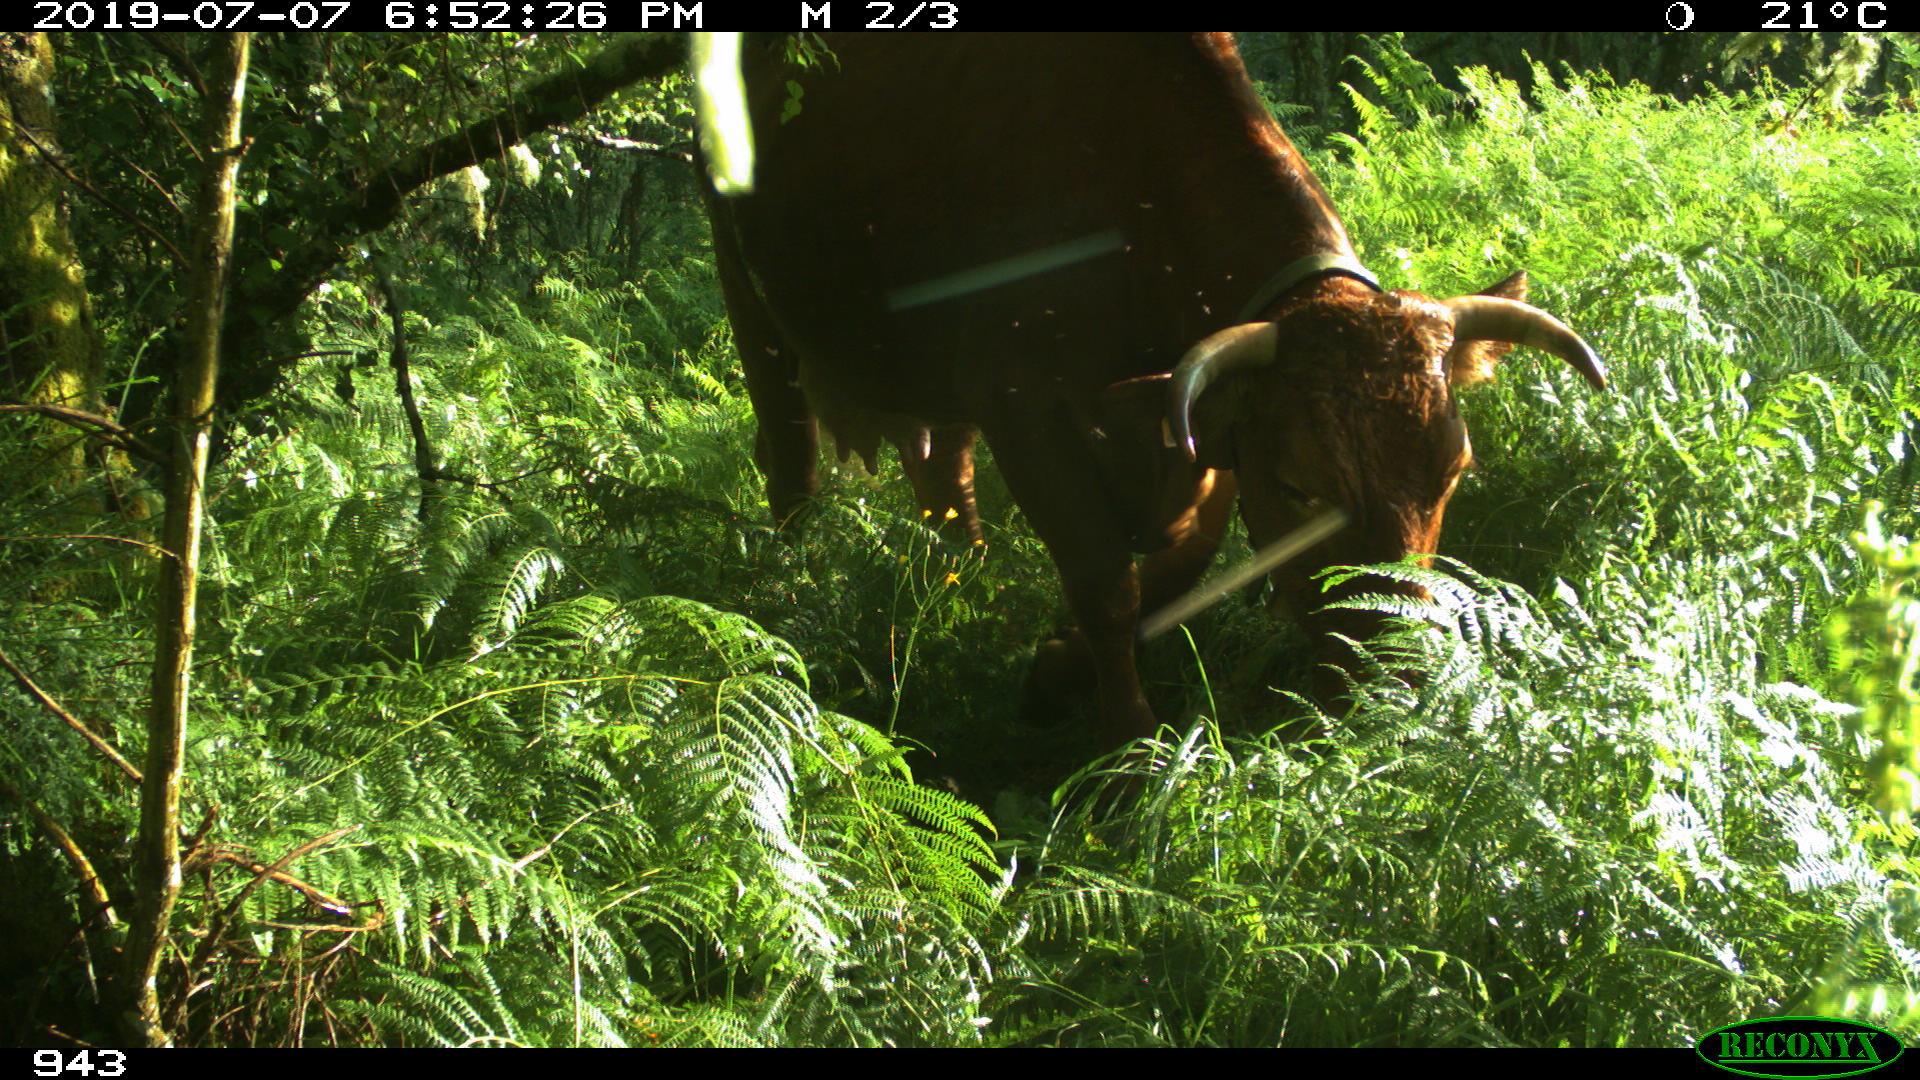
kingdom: Animalia
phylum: Chordata
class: Mammalia
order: Artiodactyla
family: Bovidae
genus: Bos
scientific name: Bos taurus
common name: Domesticated cattle
